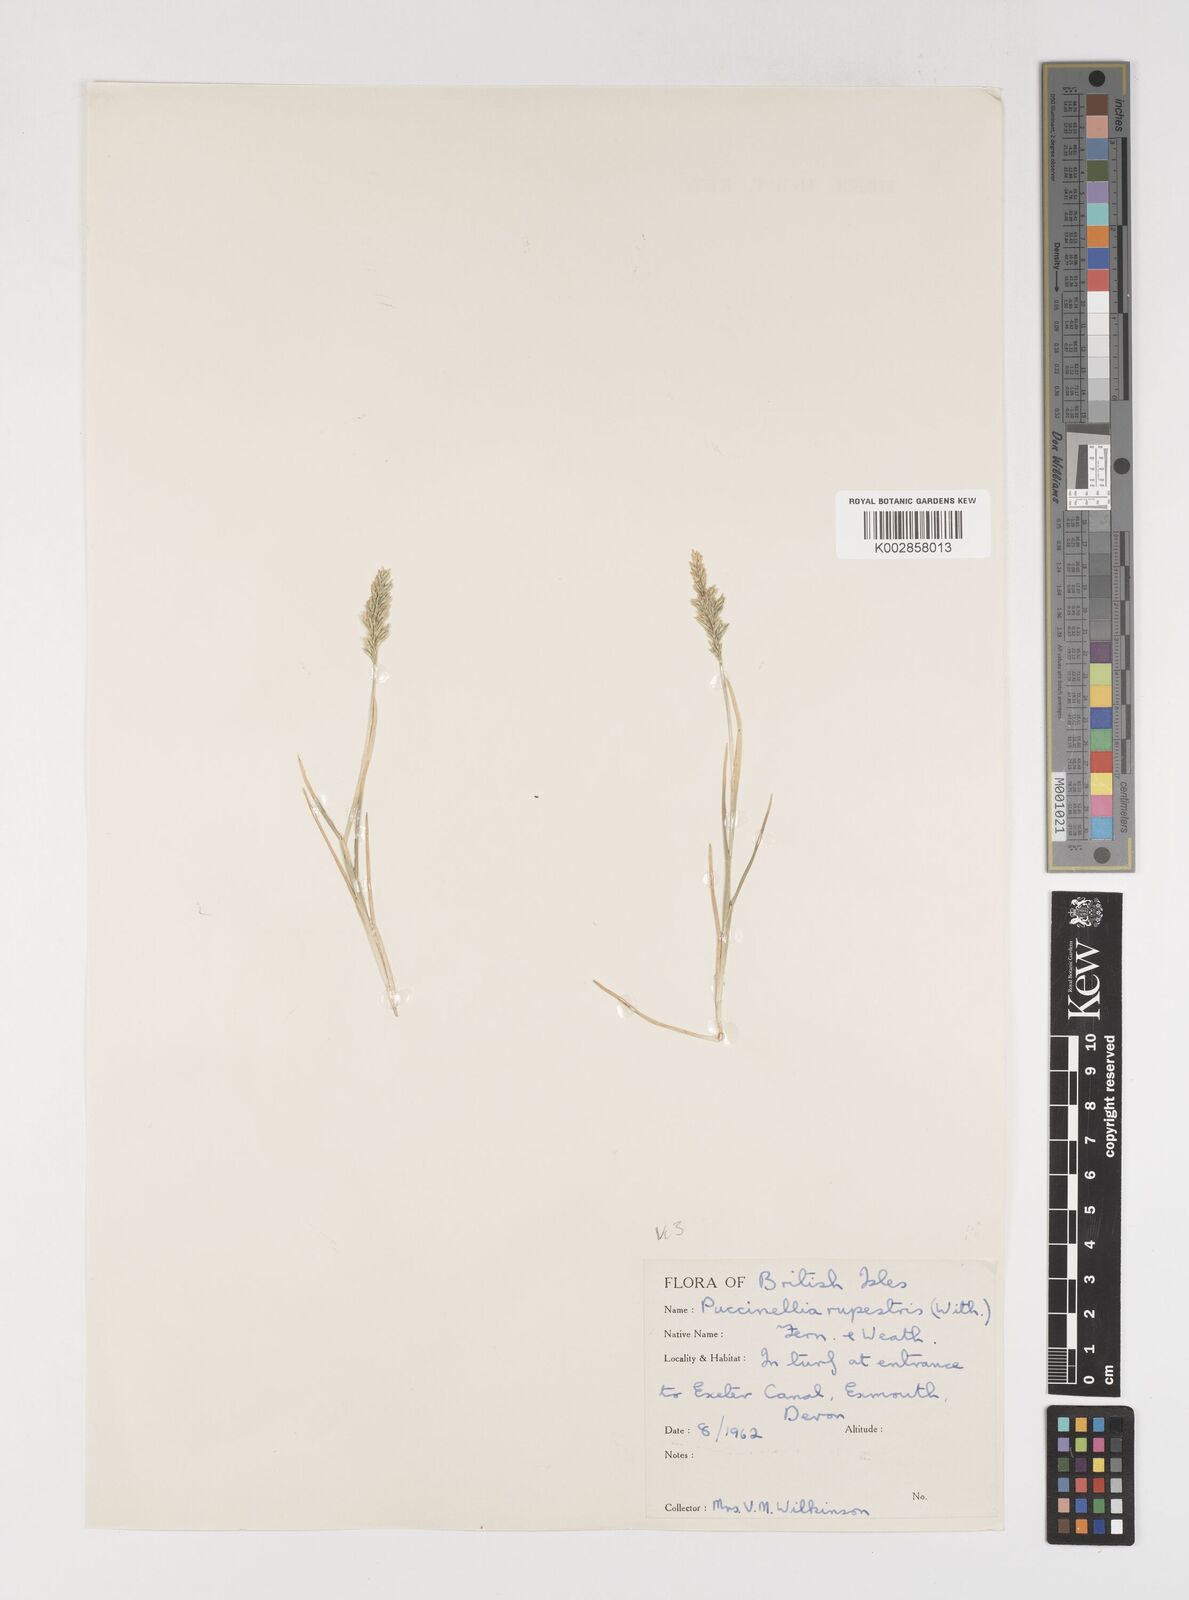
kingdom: Plantae
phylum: Tracheophyta
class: Liliopsida
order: Poales
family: Poaceae
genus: Puccinellia
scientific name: Puccinellia rupestris
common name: Stiff saltmarsh-grass
